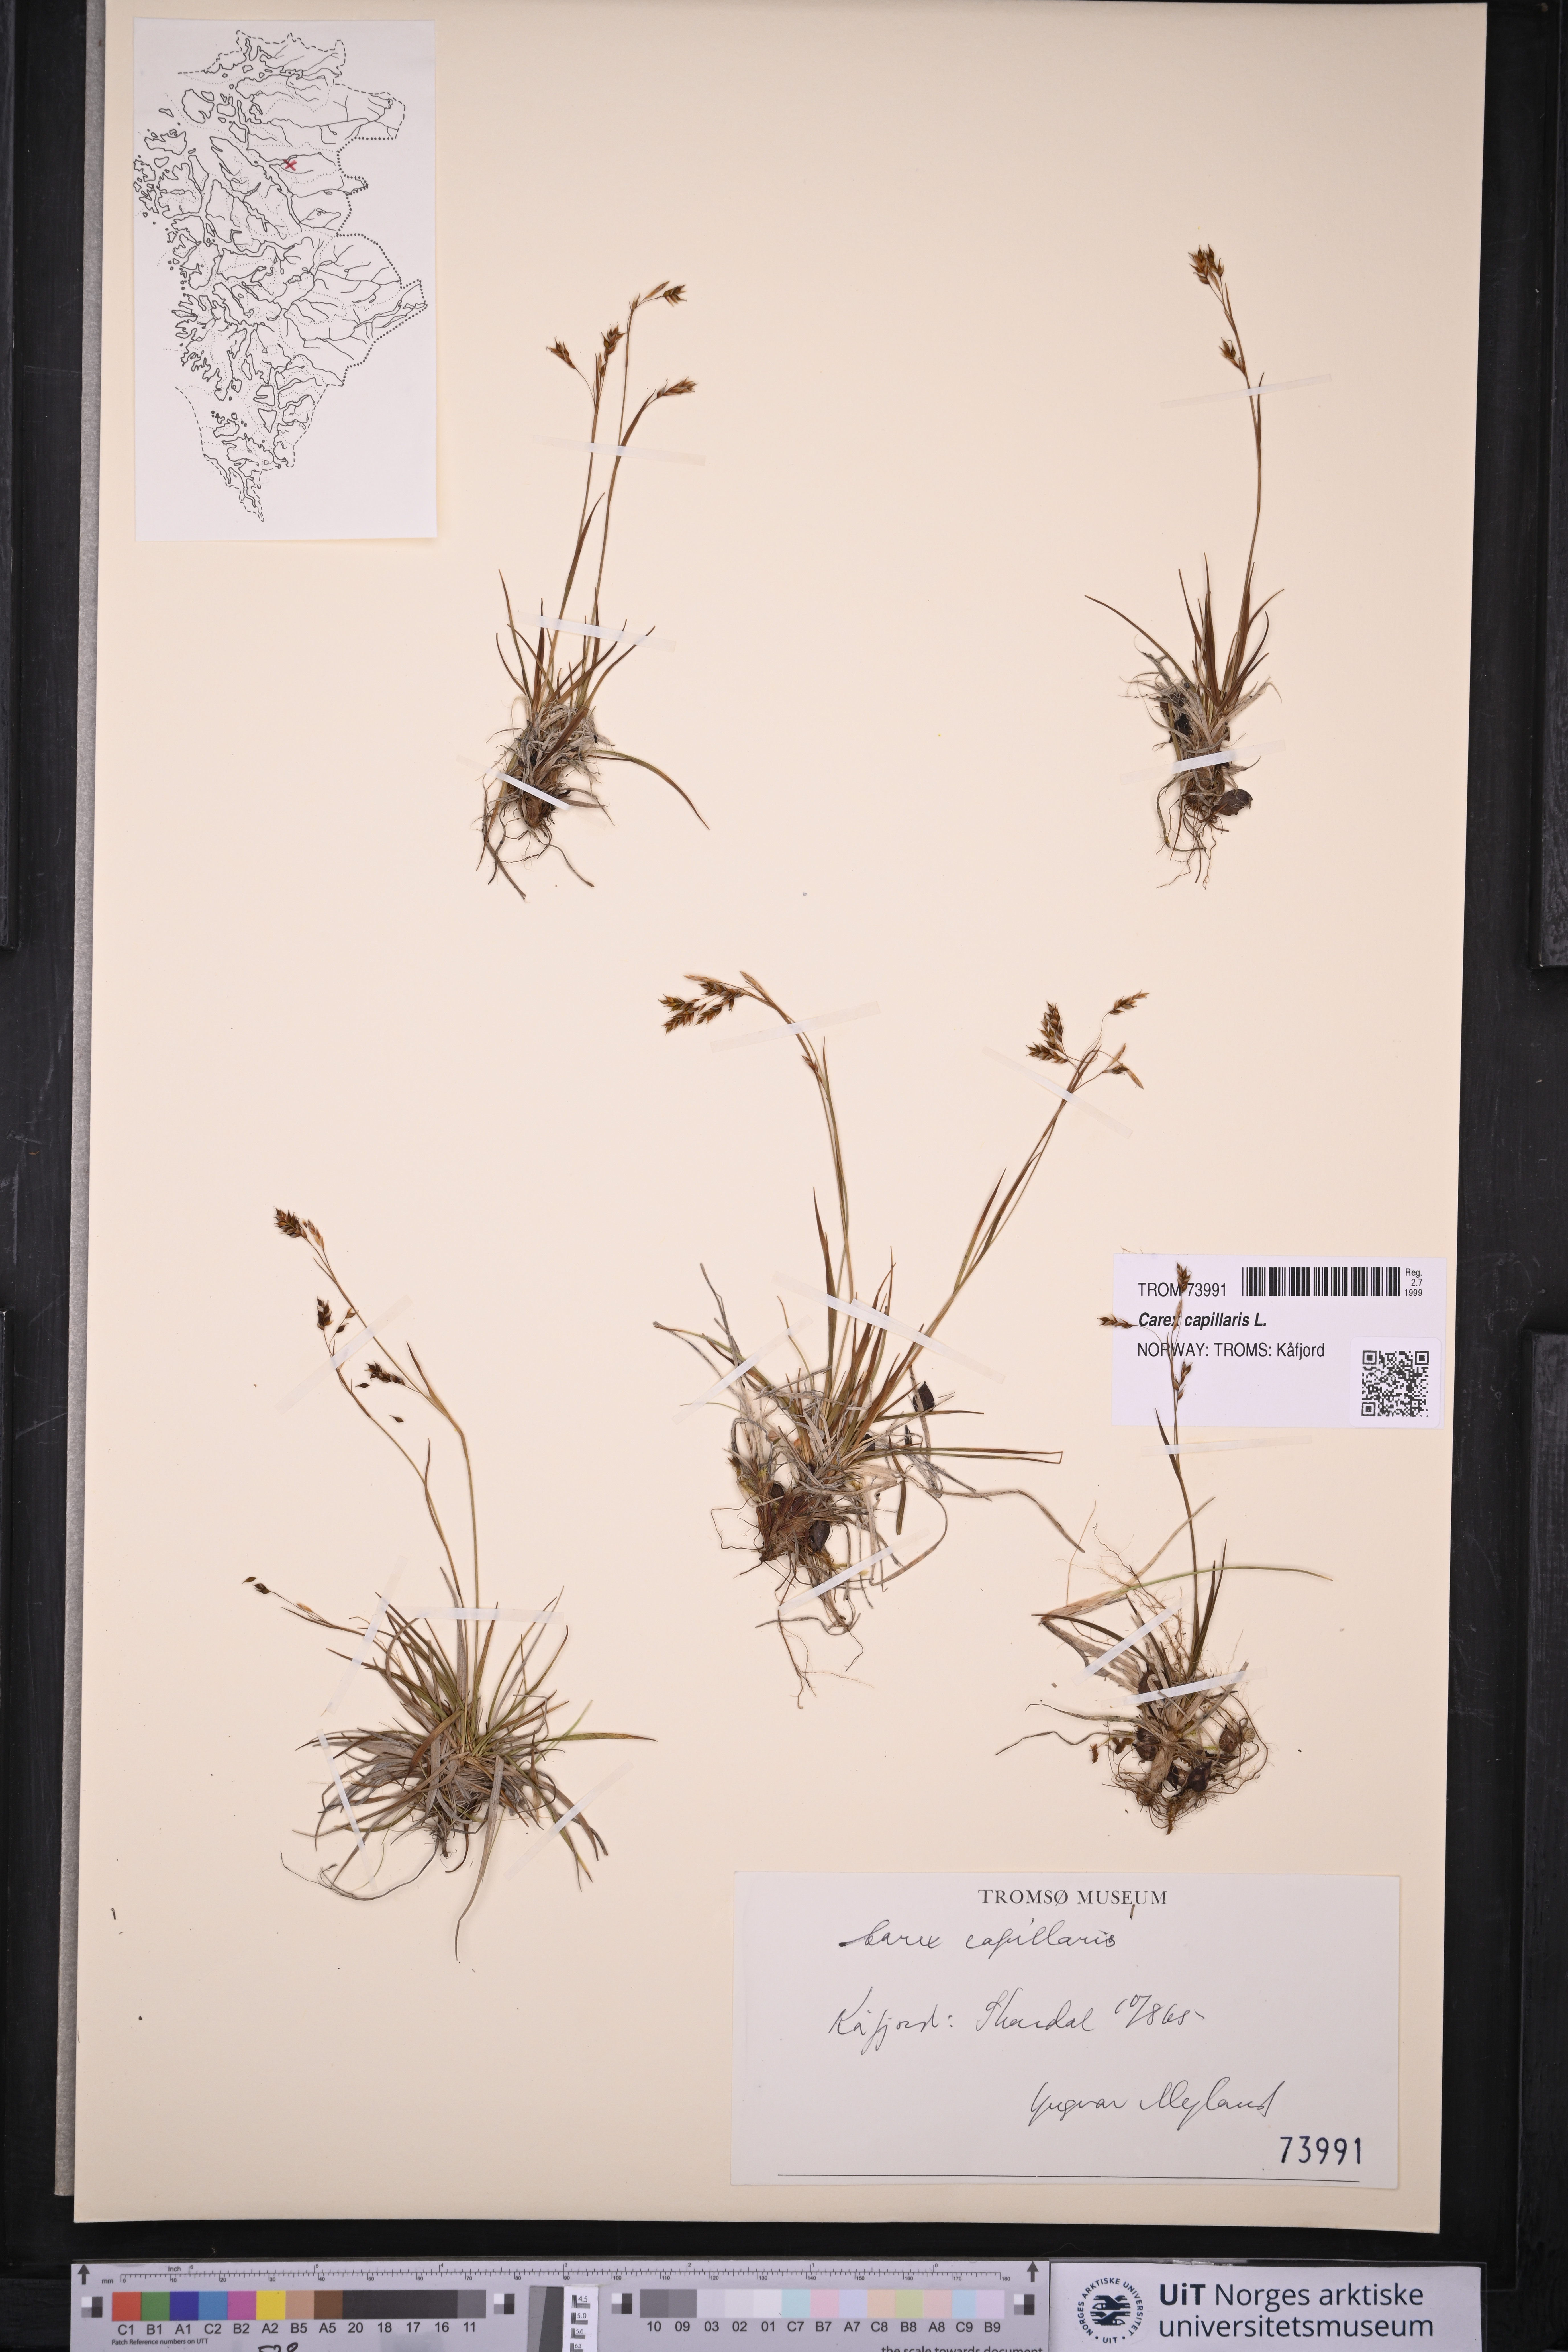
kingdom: Plantae
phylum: Tracheophyta
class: Liliopsida
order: Poales
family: Cyperaceae
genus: Carex
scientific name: Carex capillaris
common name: Hair sedge
